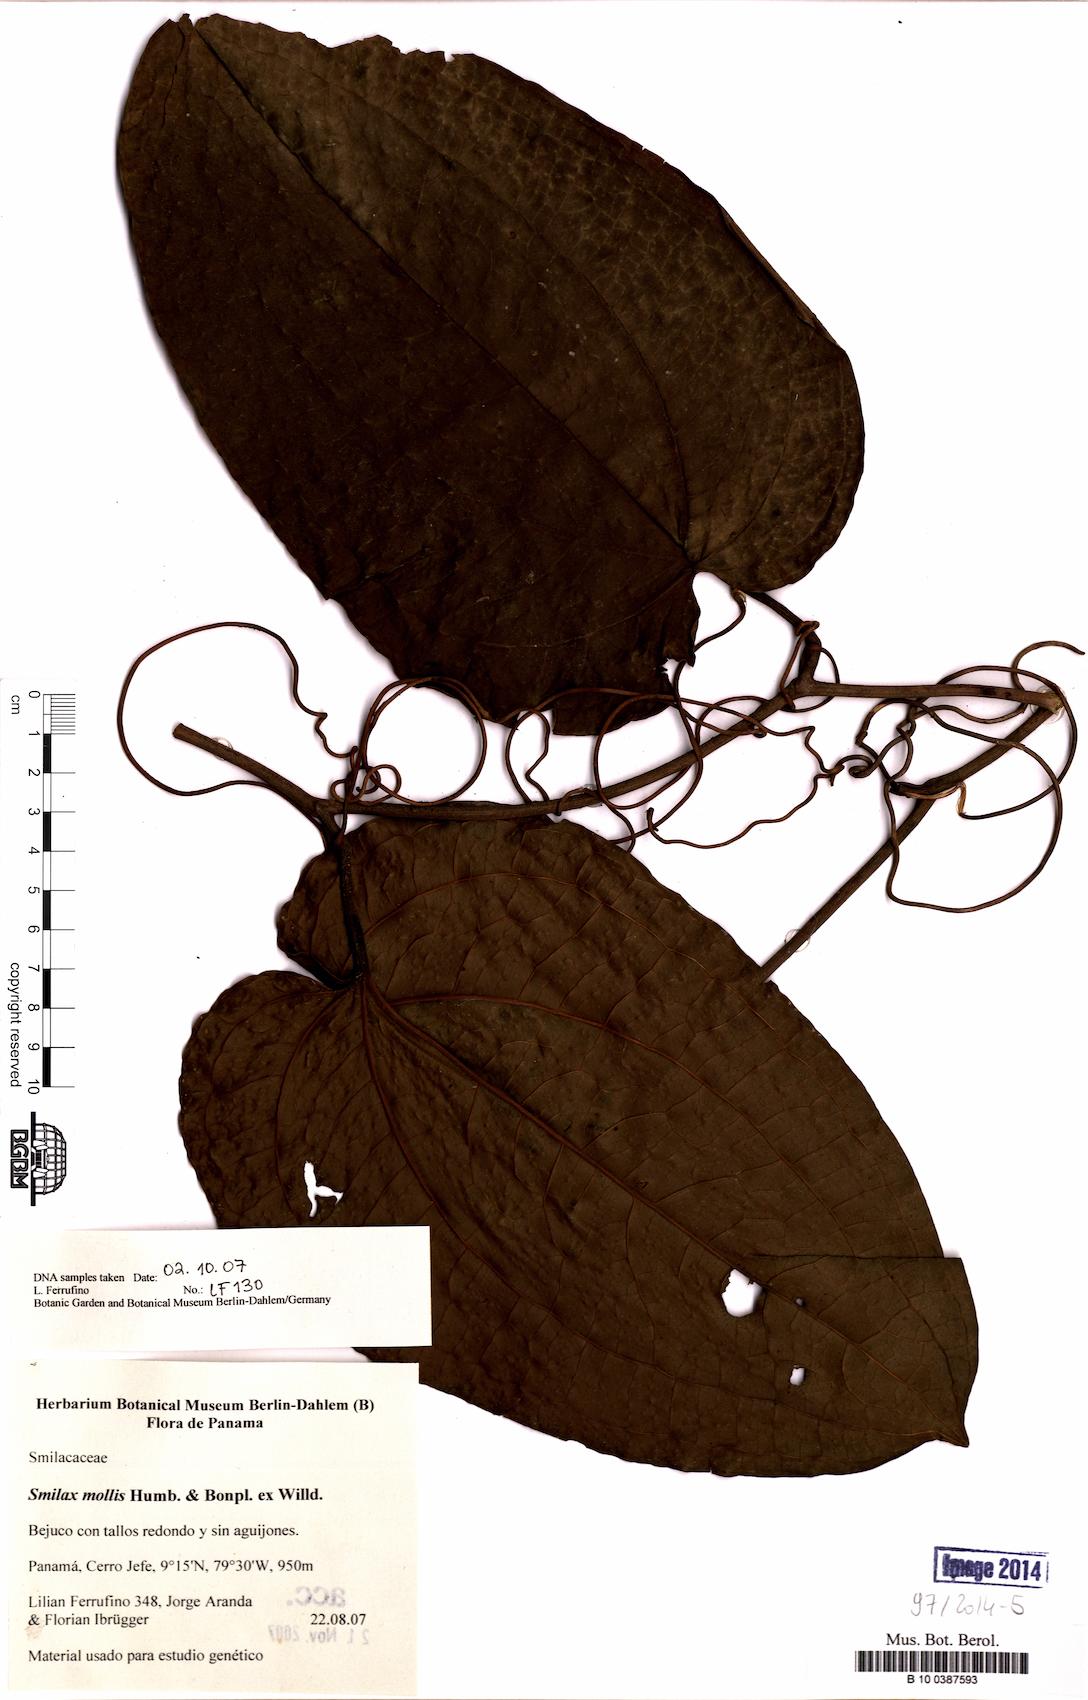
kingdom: Plantae
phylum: Tracheophyta
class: Liliopsida
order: Liliales
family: Smilacaceae
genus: Smilax
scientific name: Smilax mollis
